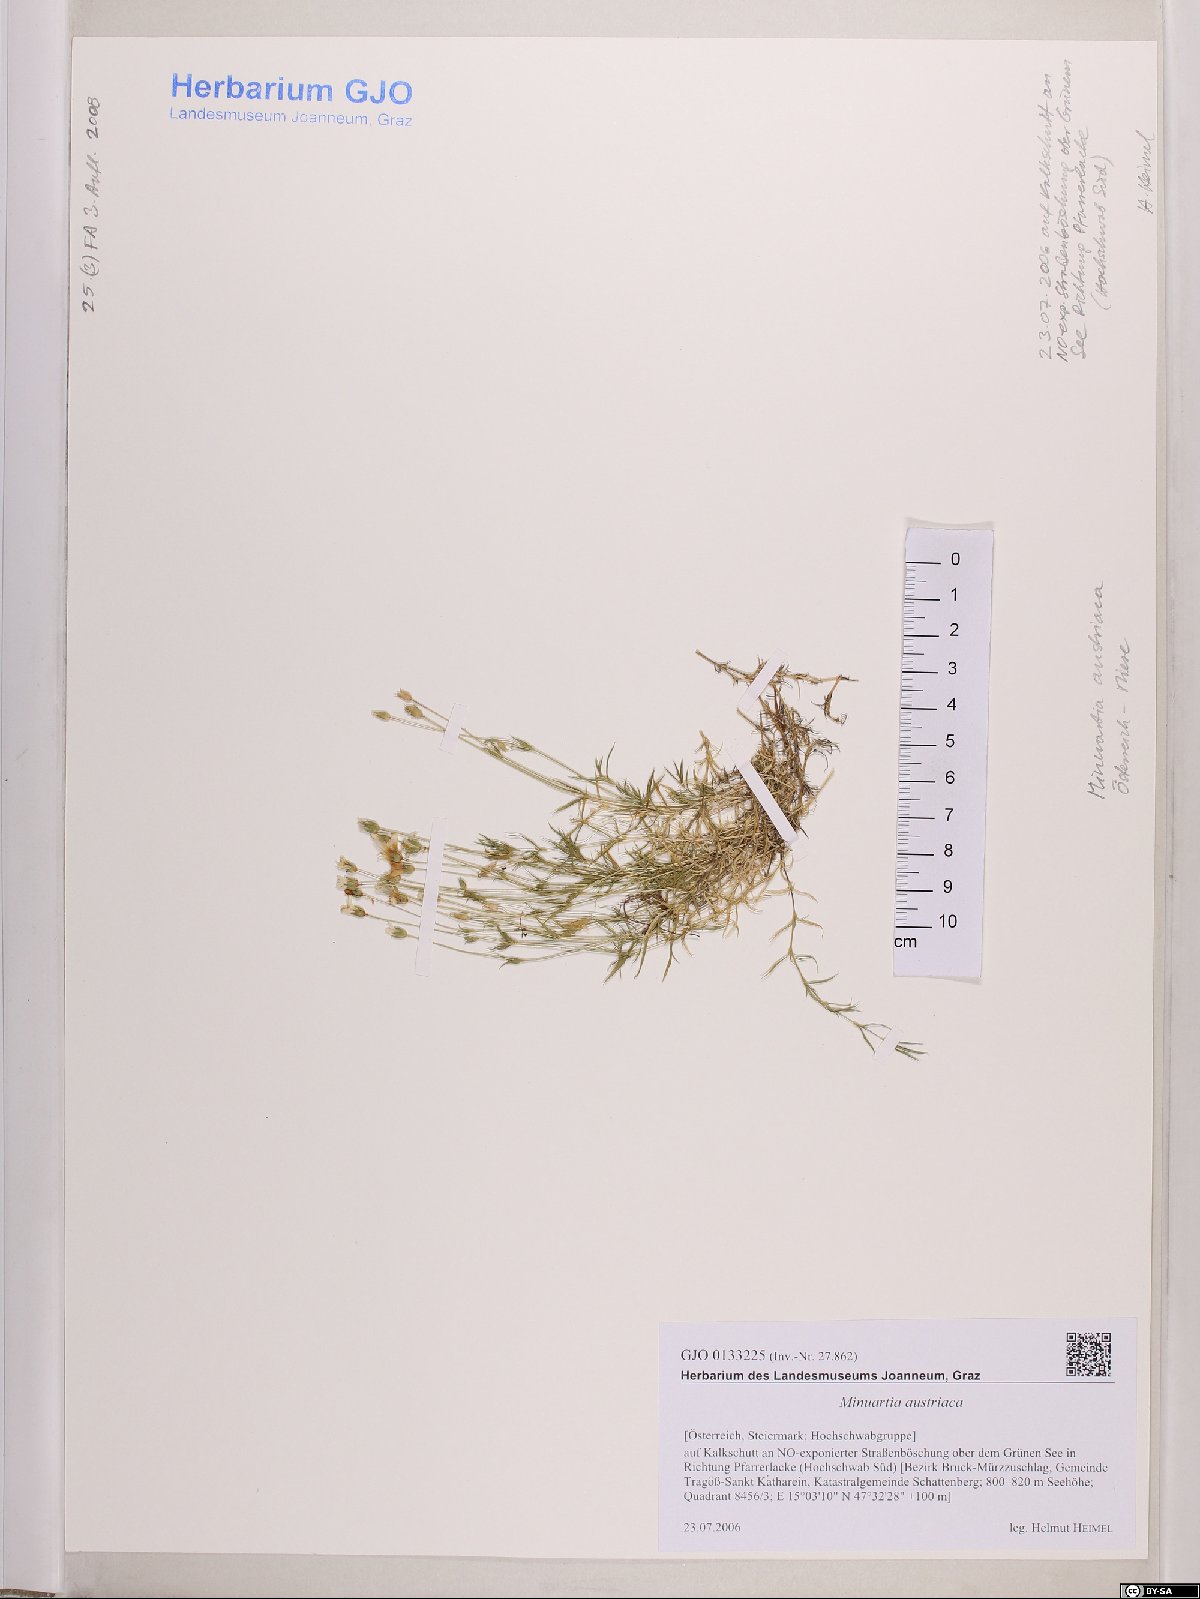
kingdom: Plantae
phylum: Tracheophyta
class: Magnoliopsida
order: Caryophyllales
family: Caryophyllaceae
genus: Sabulina
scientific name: Sabulina austriaca
